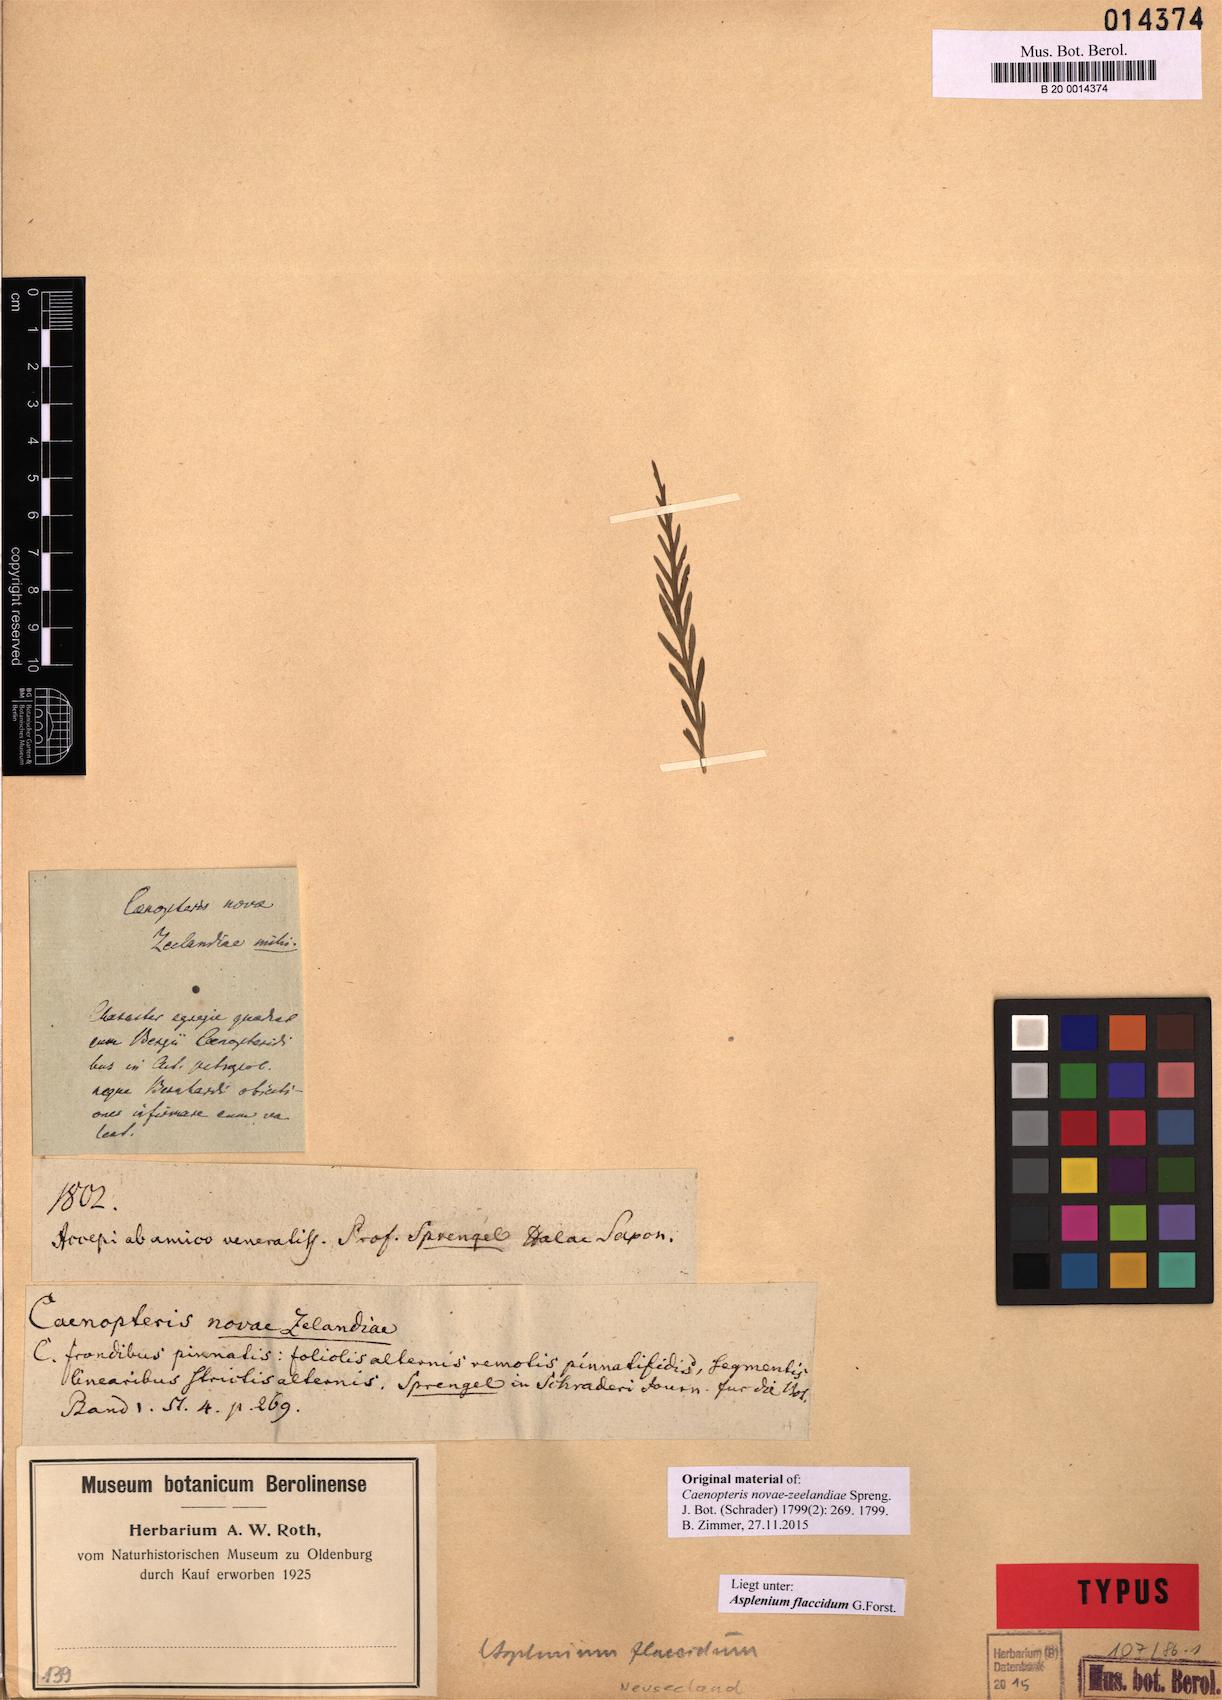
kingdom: Plantae
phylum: Tracheophyta
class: Polypodiopsida
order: Polypodiales
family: Aspleniaceae
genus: Asplenium
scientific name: Asplenium flaccidum
